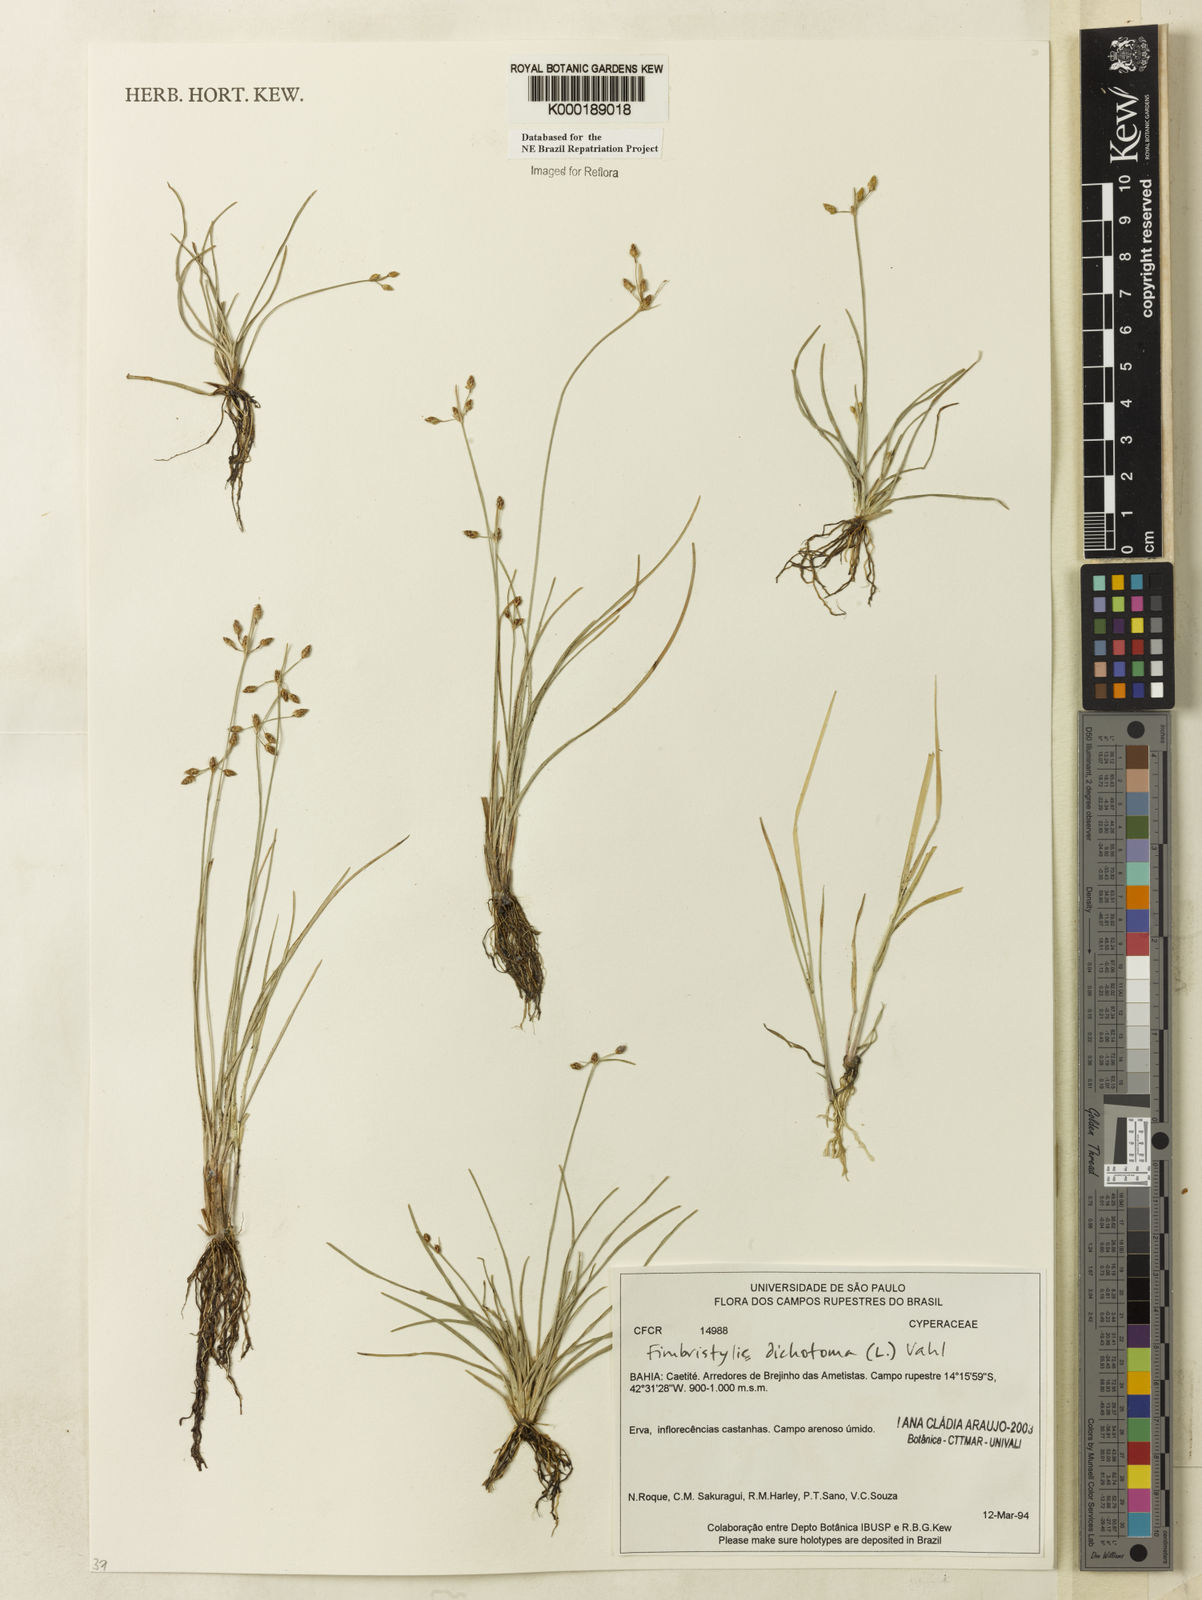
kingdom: Plantae
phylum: Tracheophyta
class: Liliopsida
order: Poales
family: Cyperaceae
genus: Fimbristylis
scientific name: Fimbristylis dichotoma
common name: Forked fimbry
